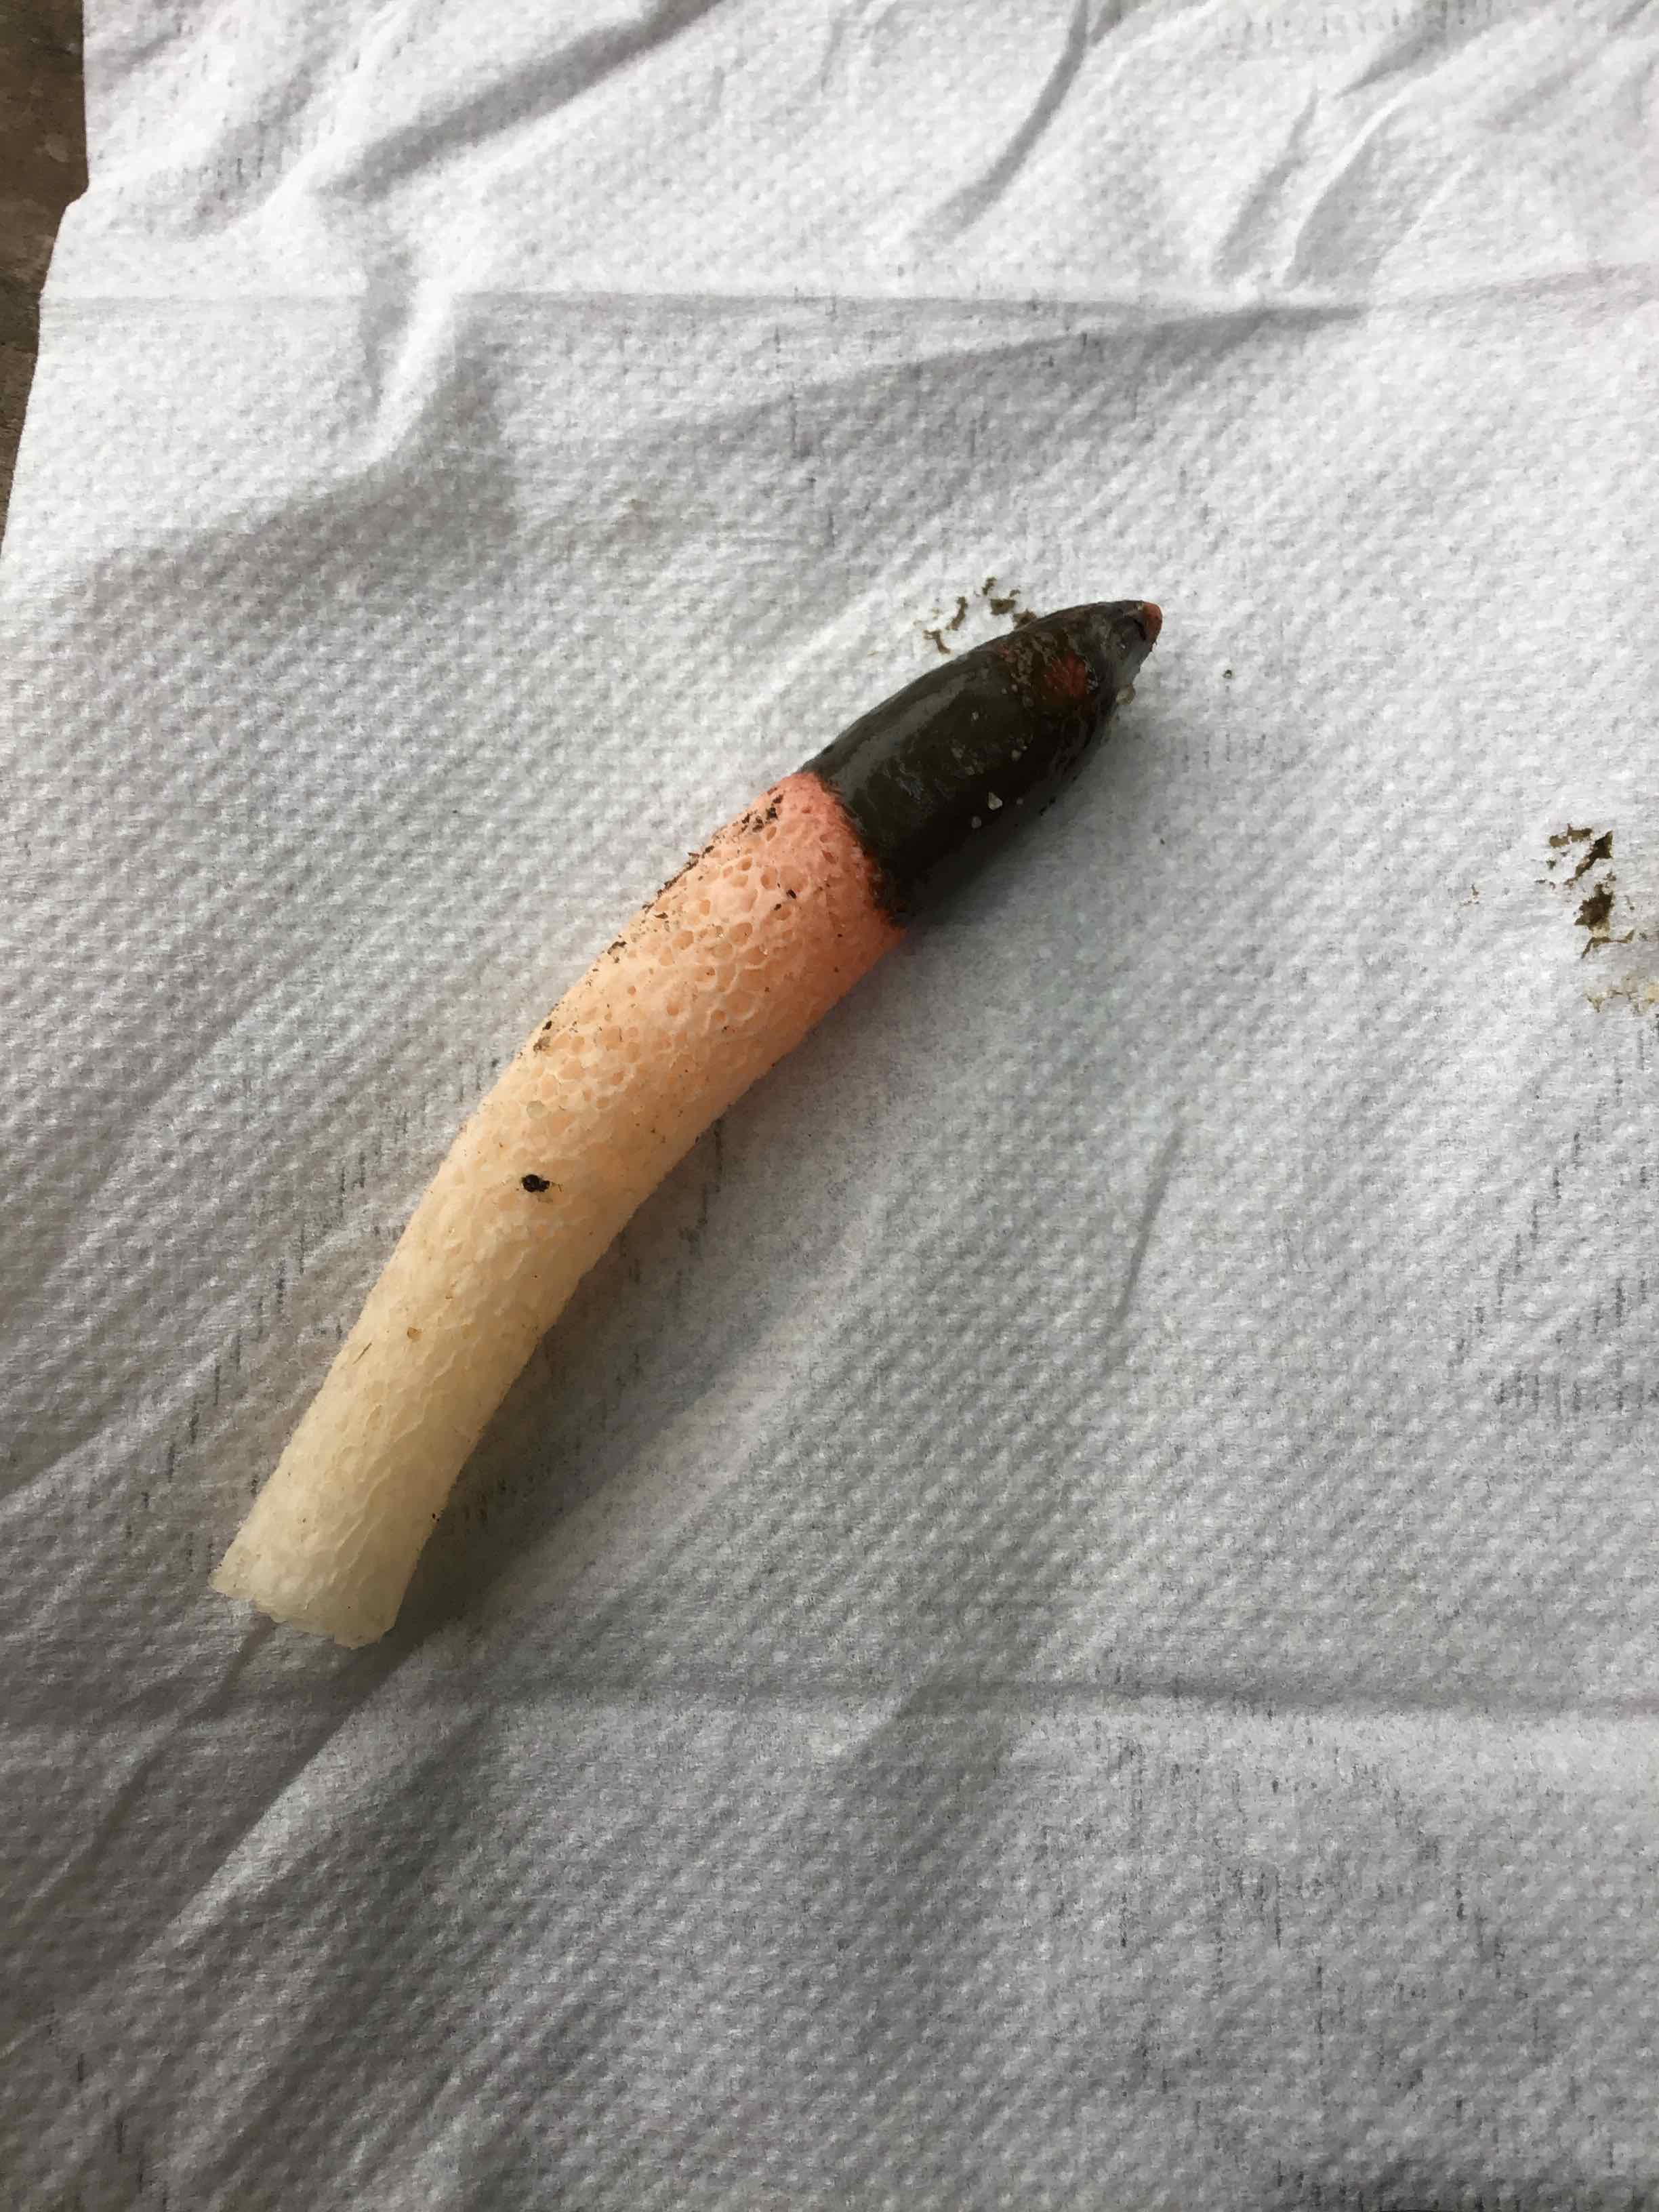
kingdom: Fungi
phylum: Basidiomycota
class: Agaricomycetes
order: Phallales
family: Phallaceae
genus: Mutinus
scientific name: Mutinus caninus
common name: hunde-stinksvamp
